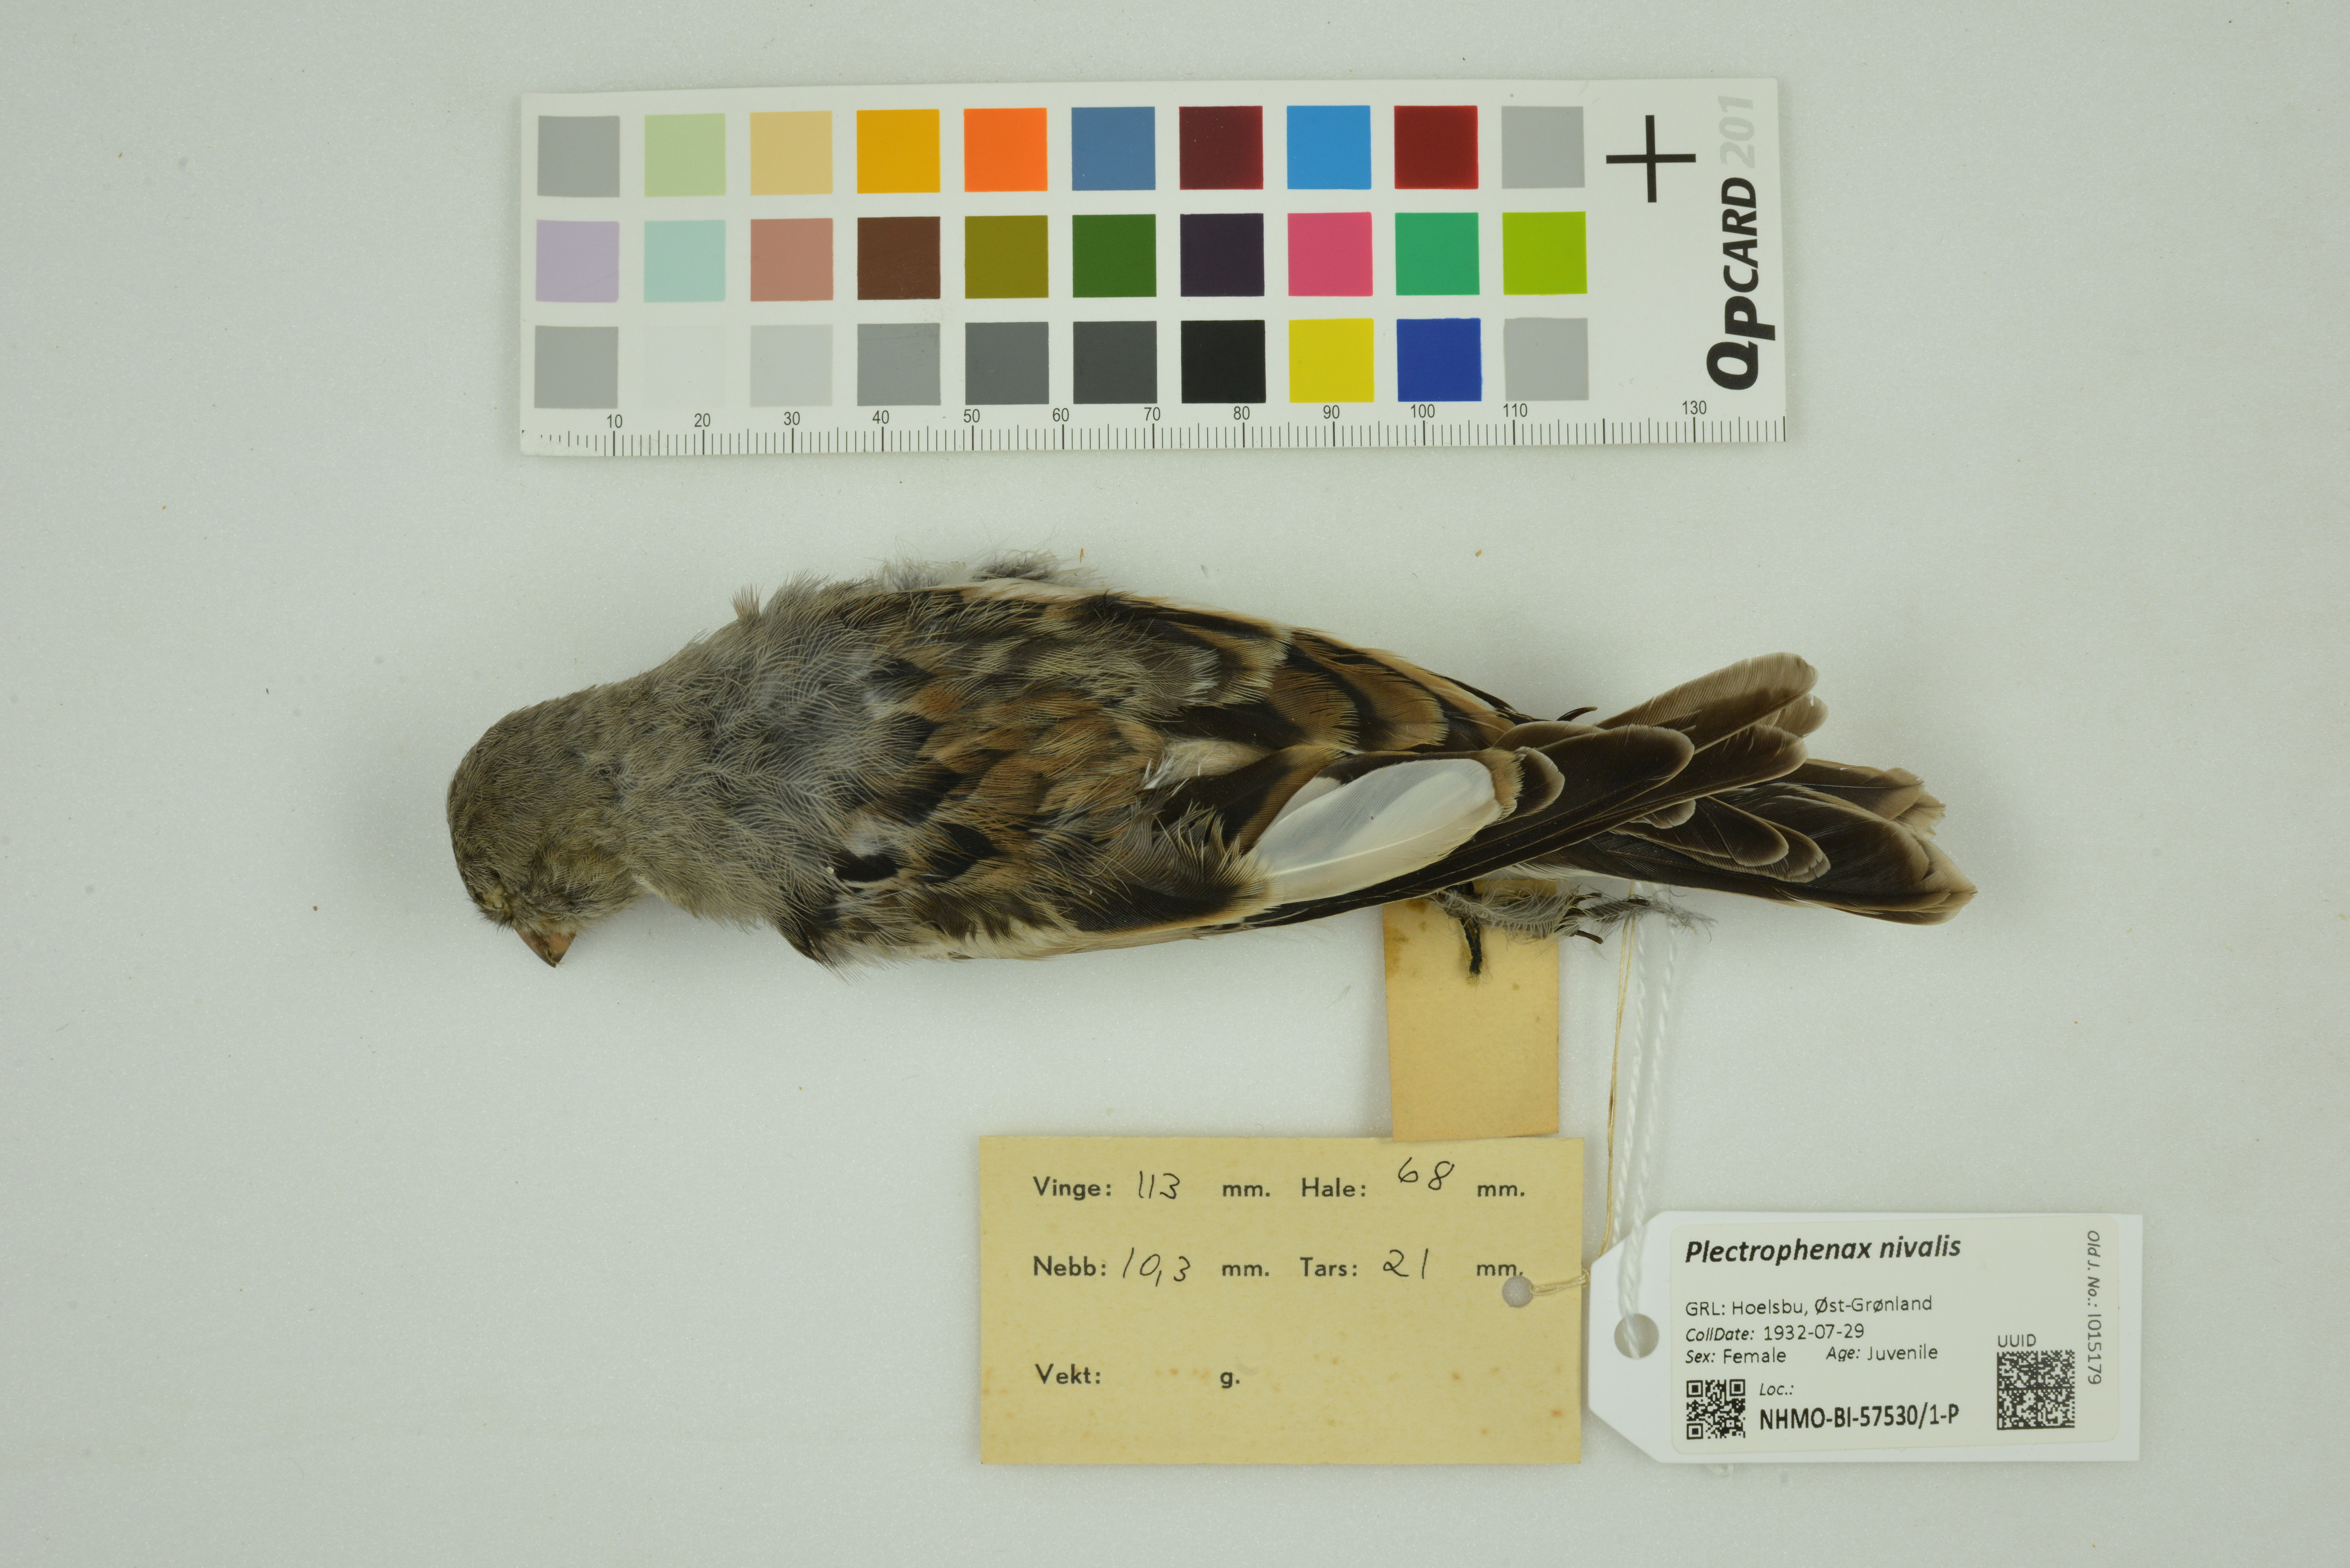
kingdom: Animalia
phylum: Chordata
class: Aves
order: Passeriformes
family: Calcariidae
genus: Plectrophenax
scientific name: Plectrophenax nivalis
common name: Snow bunting
